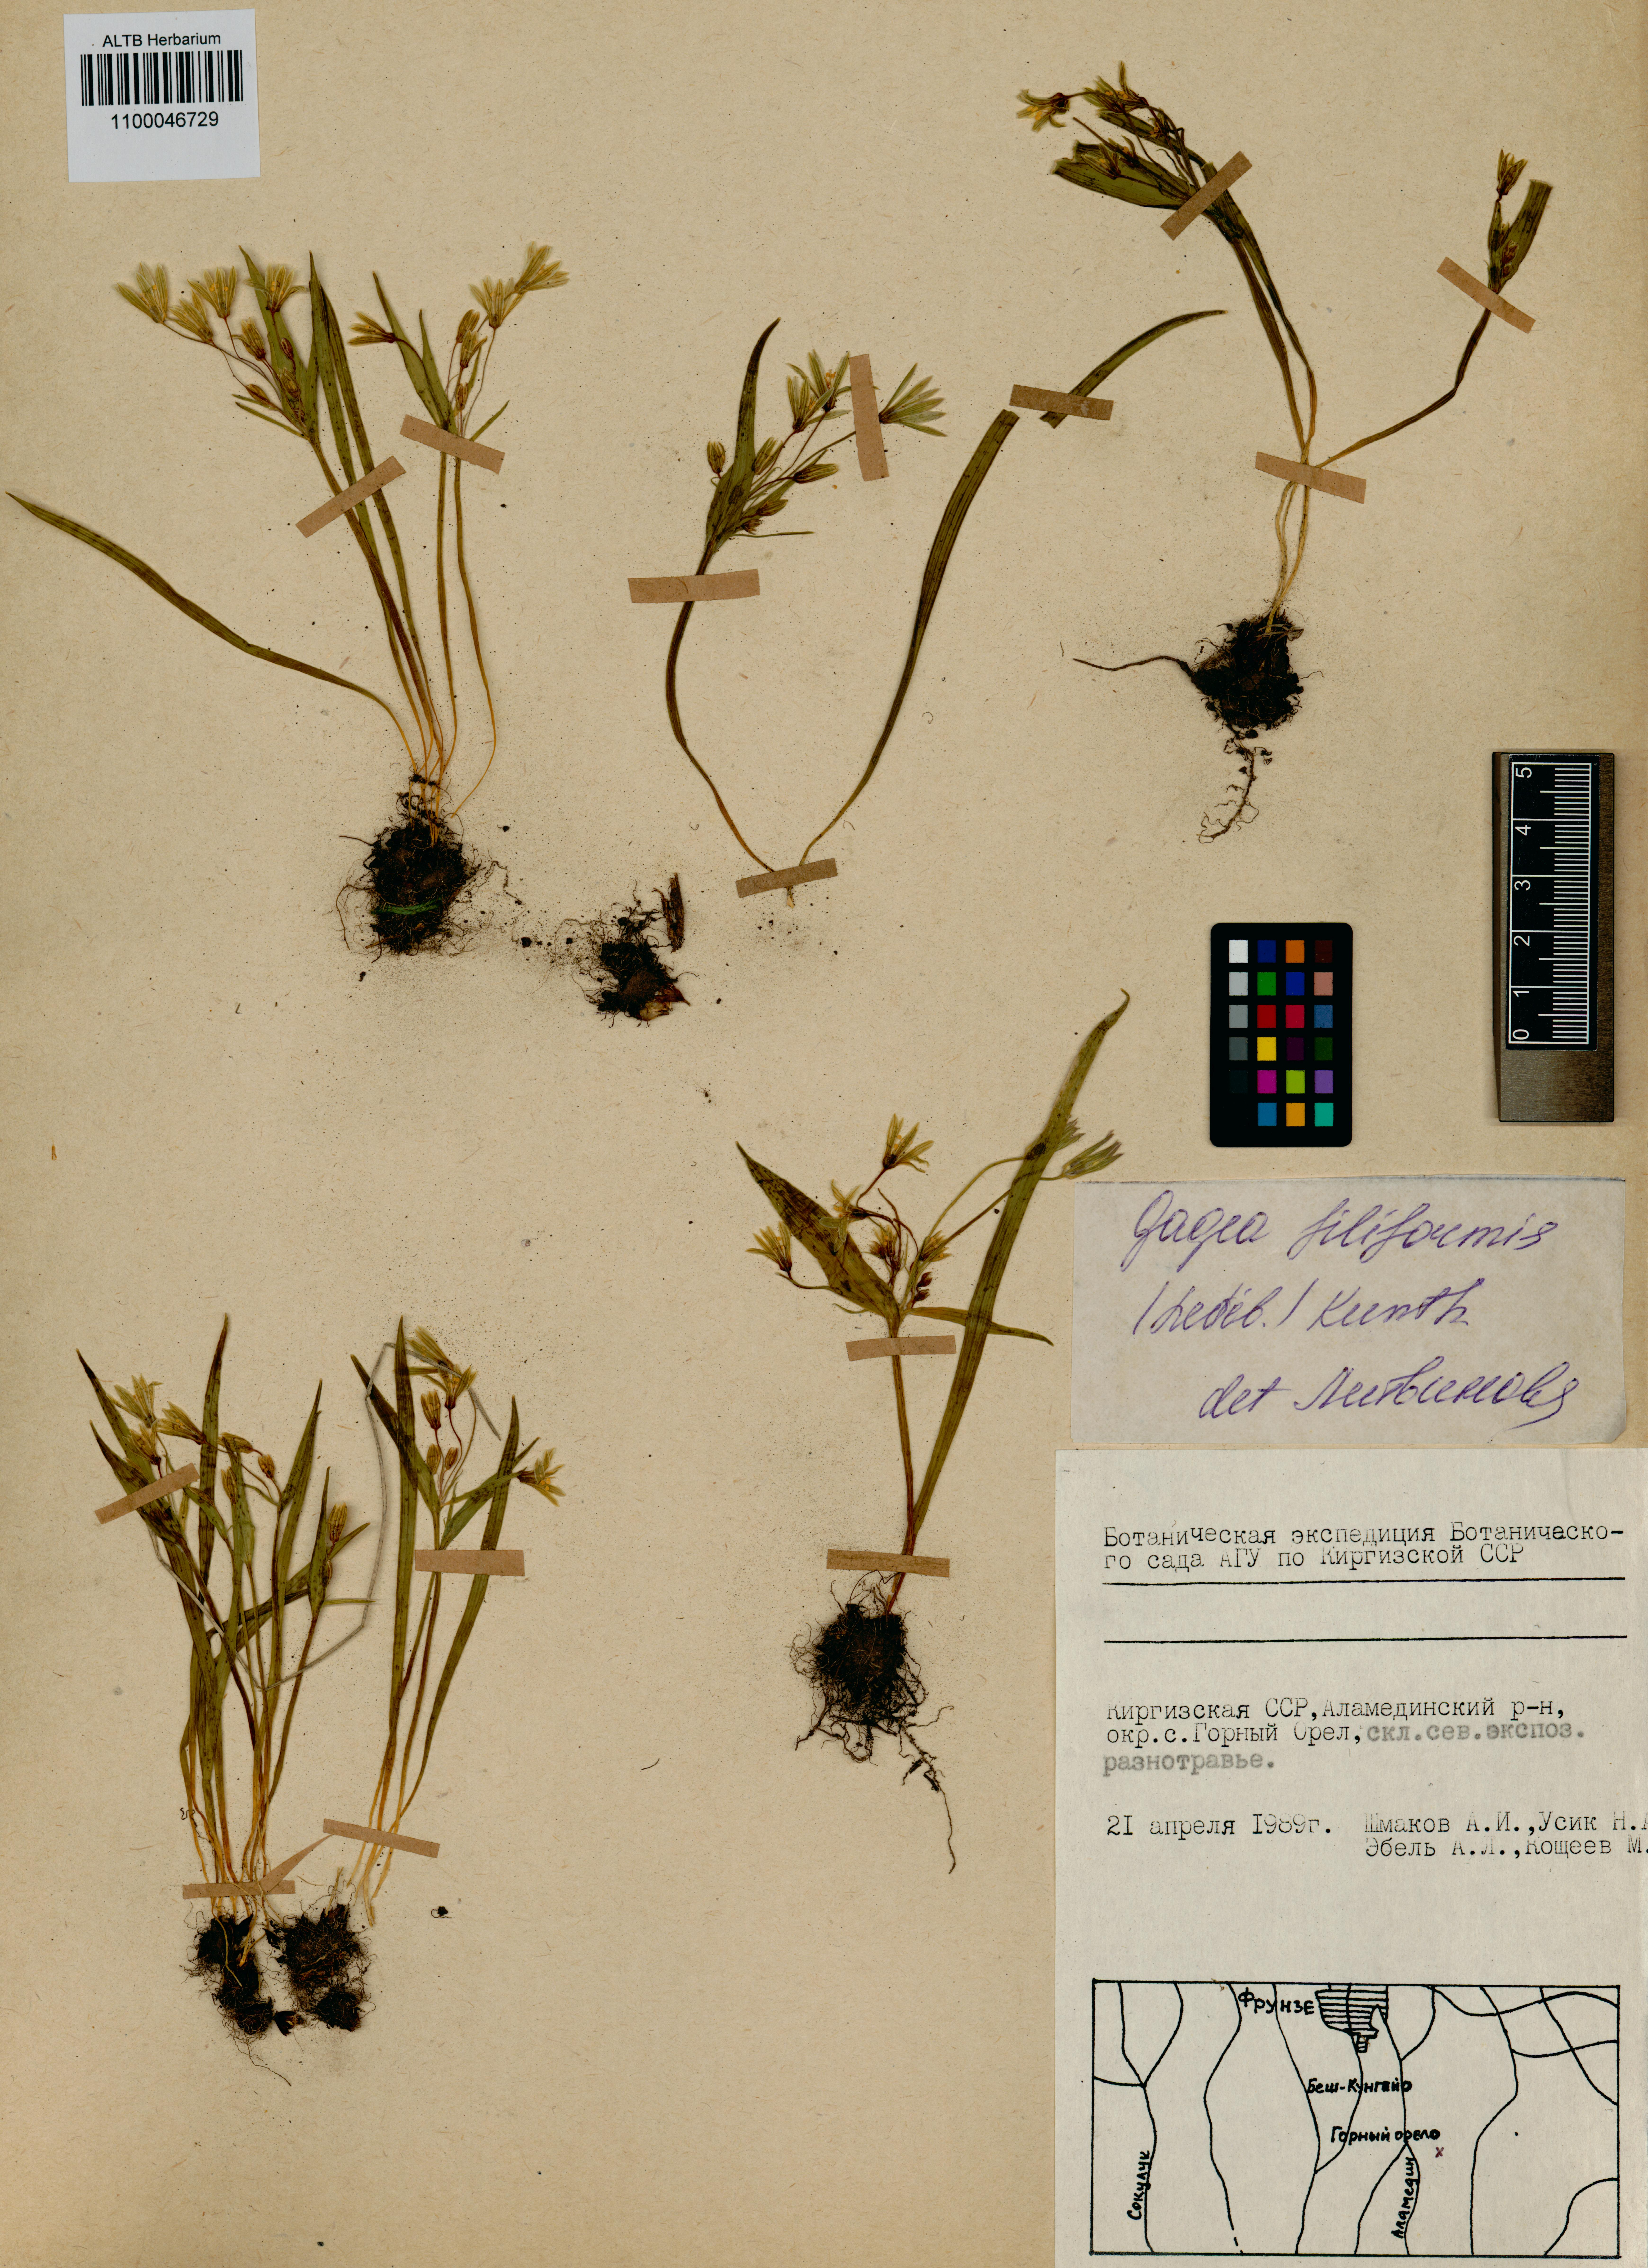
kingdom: Plantae
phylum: Tracheophyta
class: Liliopsida
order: Liliales
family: Liliaceae
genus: Gagea
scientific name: Gagea filiformis
